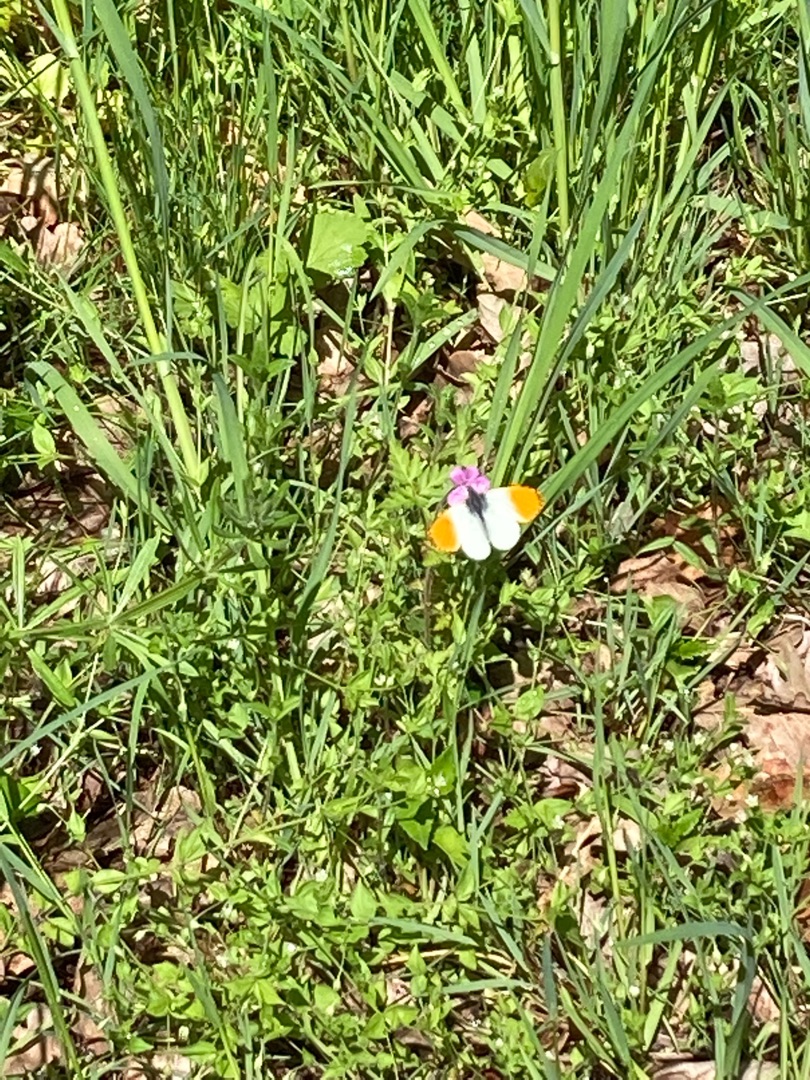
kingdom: Animalia
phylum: Arthropoda
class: Insecta
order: Lepidoptera
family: Pieridae
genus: Anthocharis
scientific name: Anthocharis cardamines
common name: Aurora
